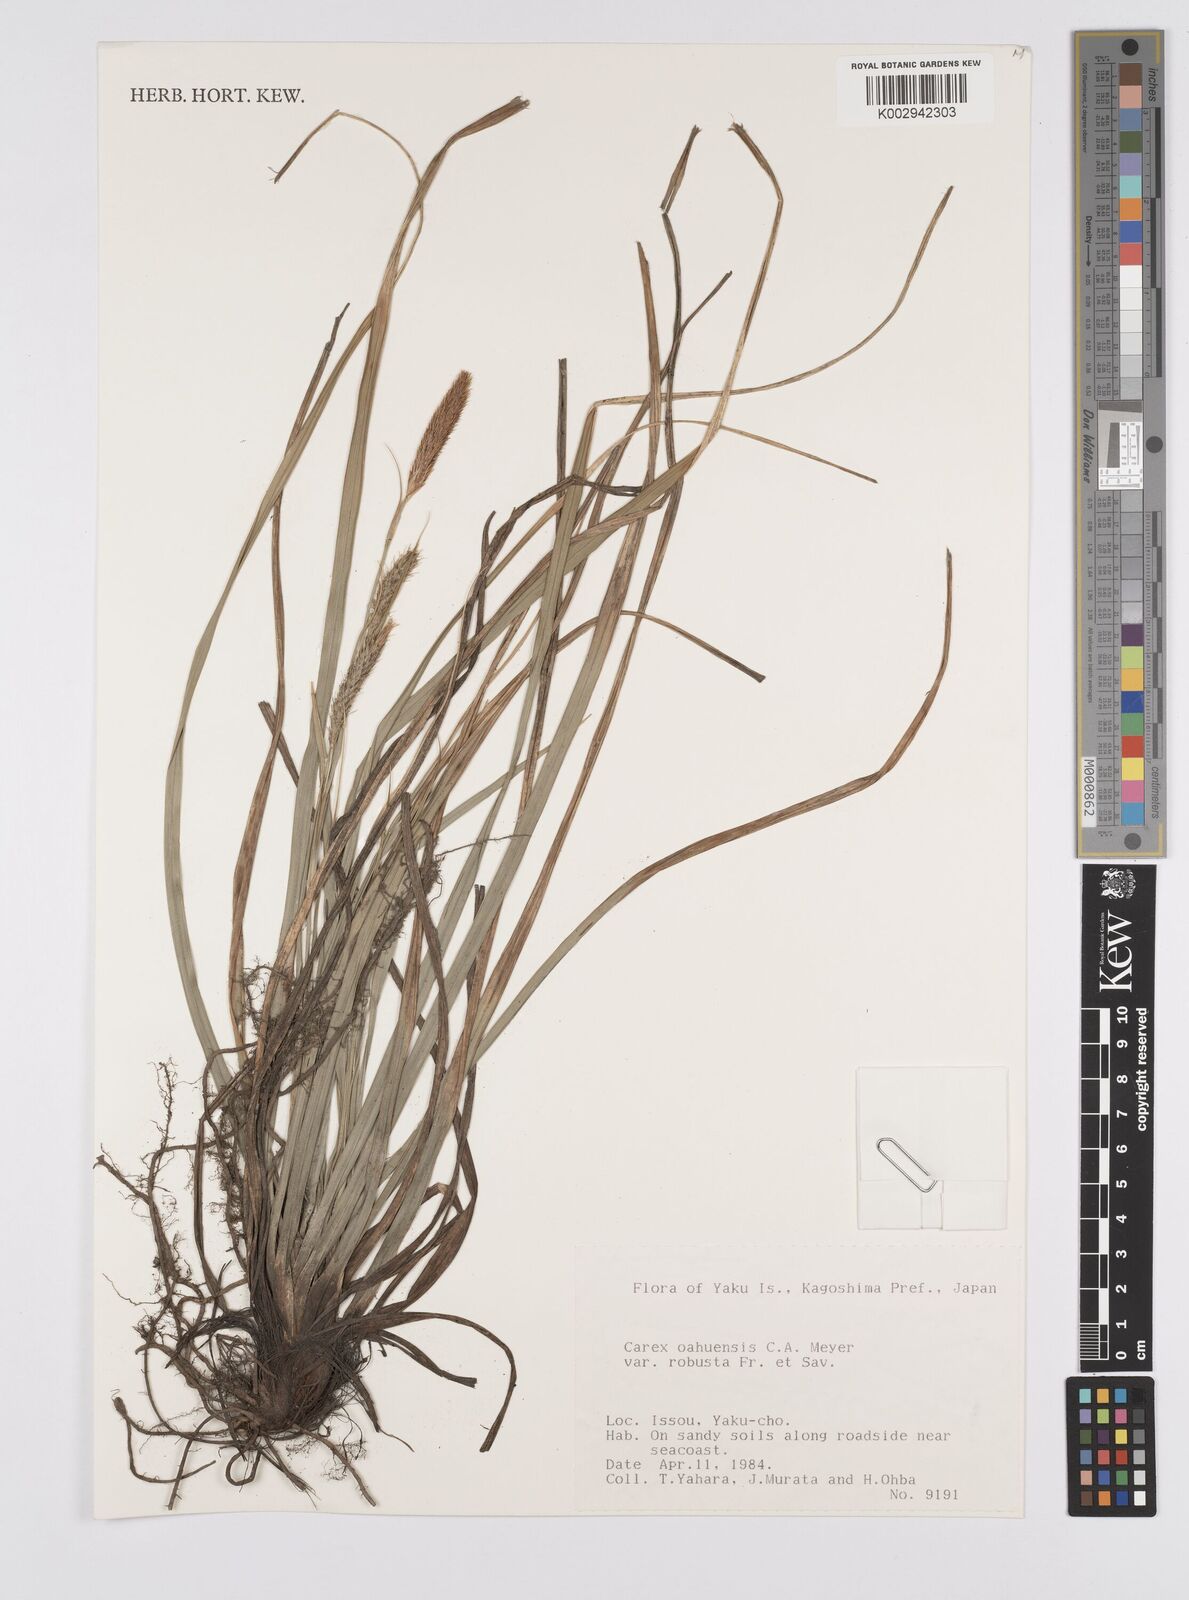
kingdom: Plantae
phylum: Tracheophyta
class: Liliopsida
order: Poales
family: Cyperaceae
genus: Carex
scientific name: Carex wahuensis
